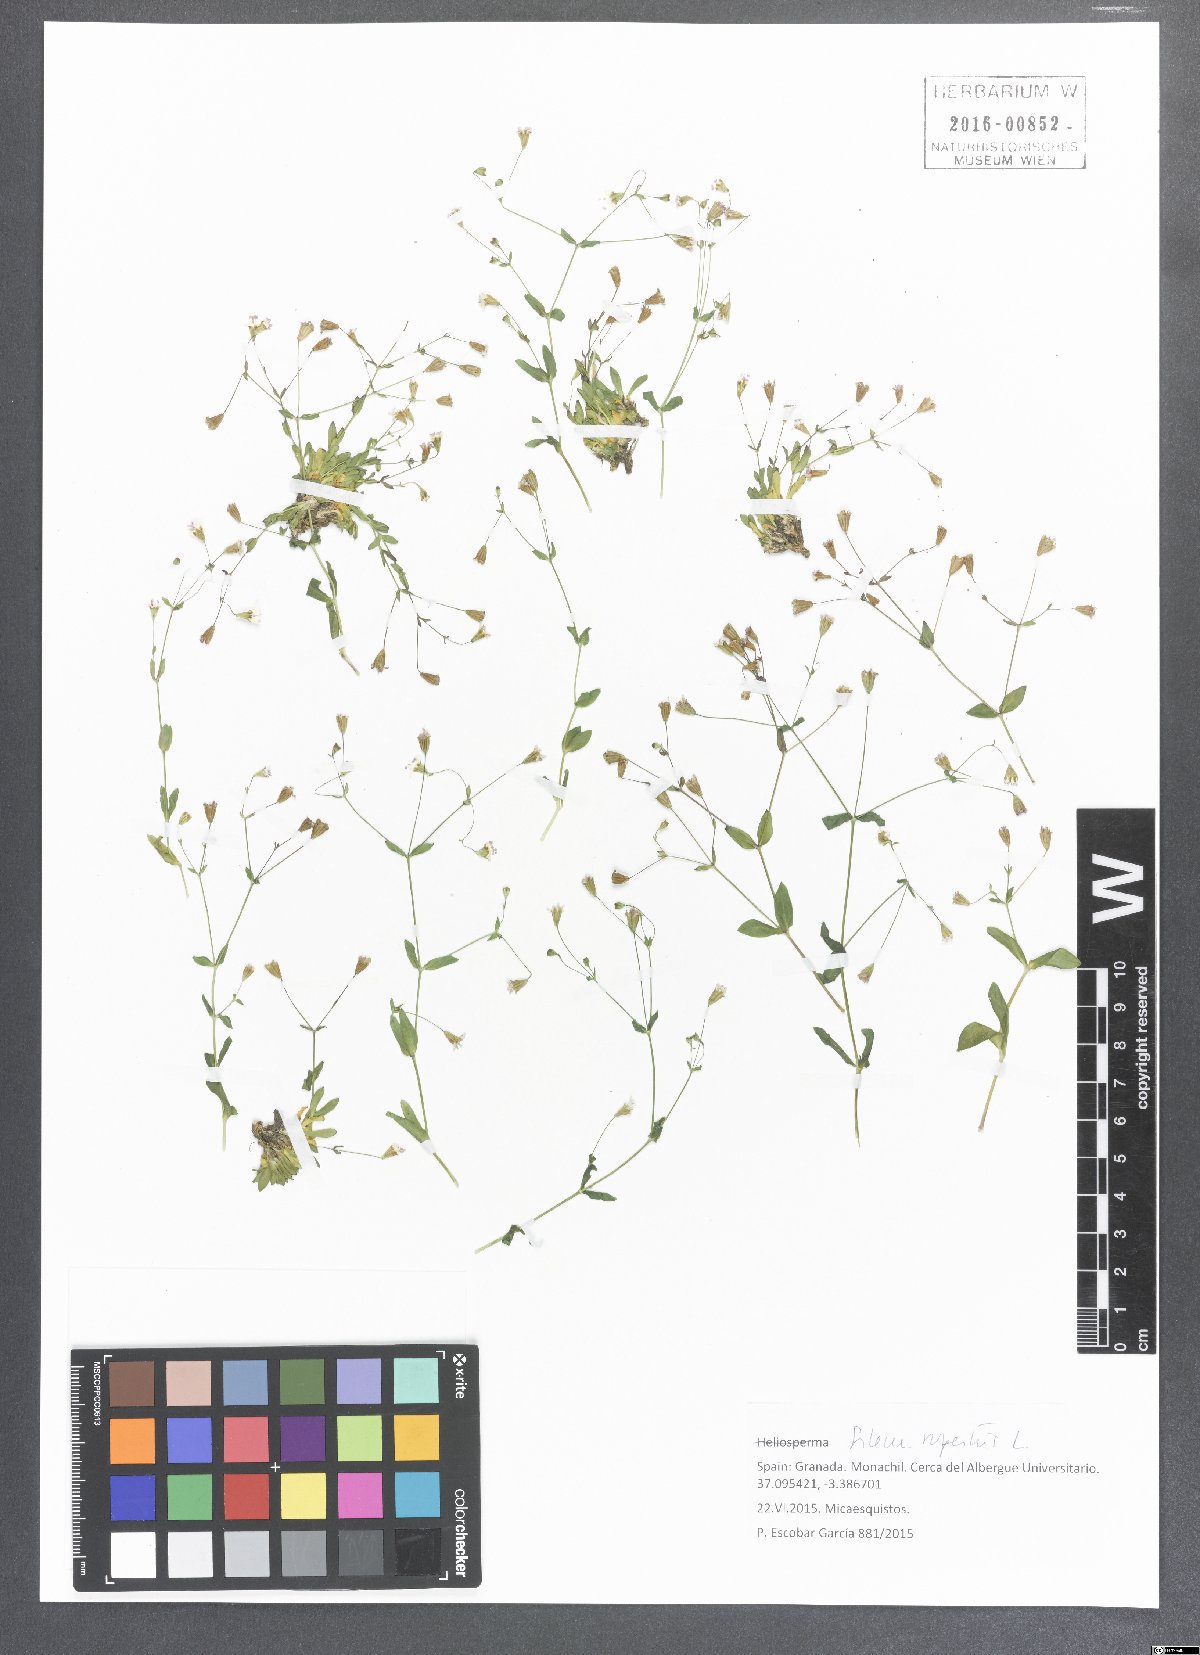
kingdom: Plantae
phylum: Tracheophyta
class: Magnoliopsida
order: Caryophyllales
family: Caryophyllaceae
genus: Atocion
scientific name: Atocion rupestre
